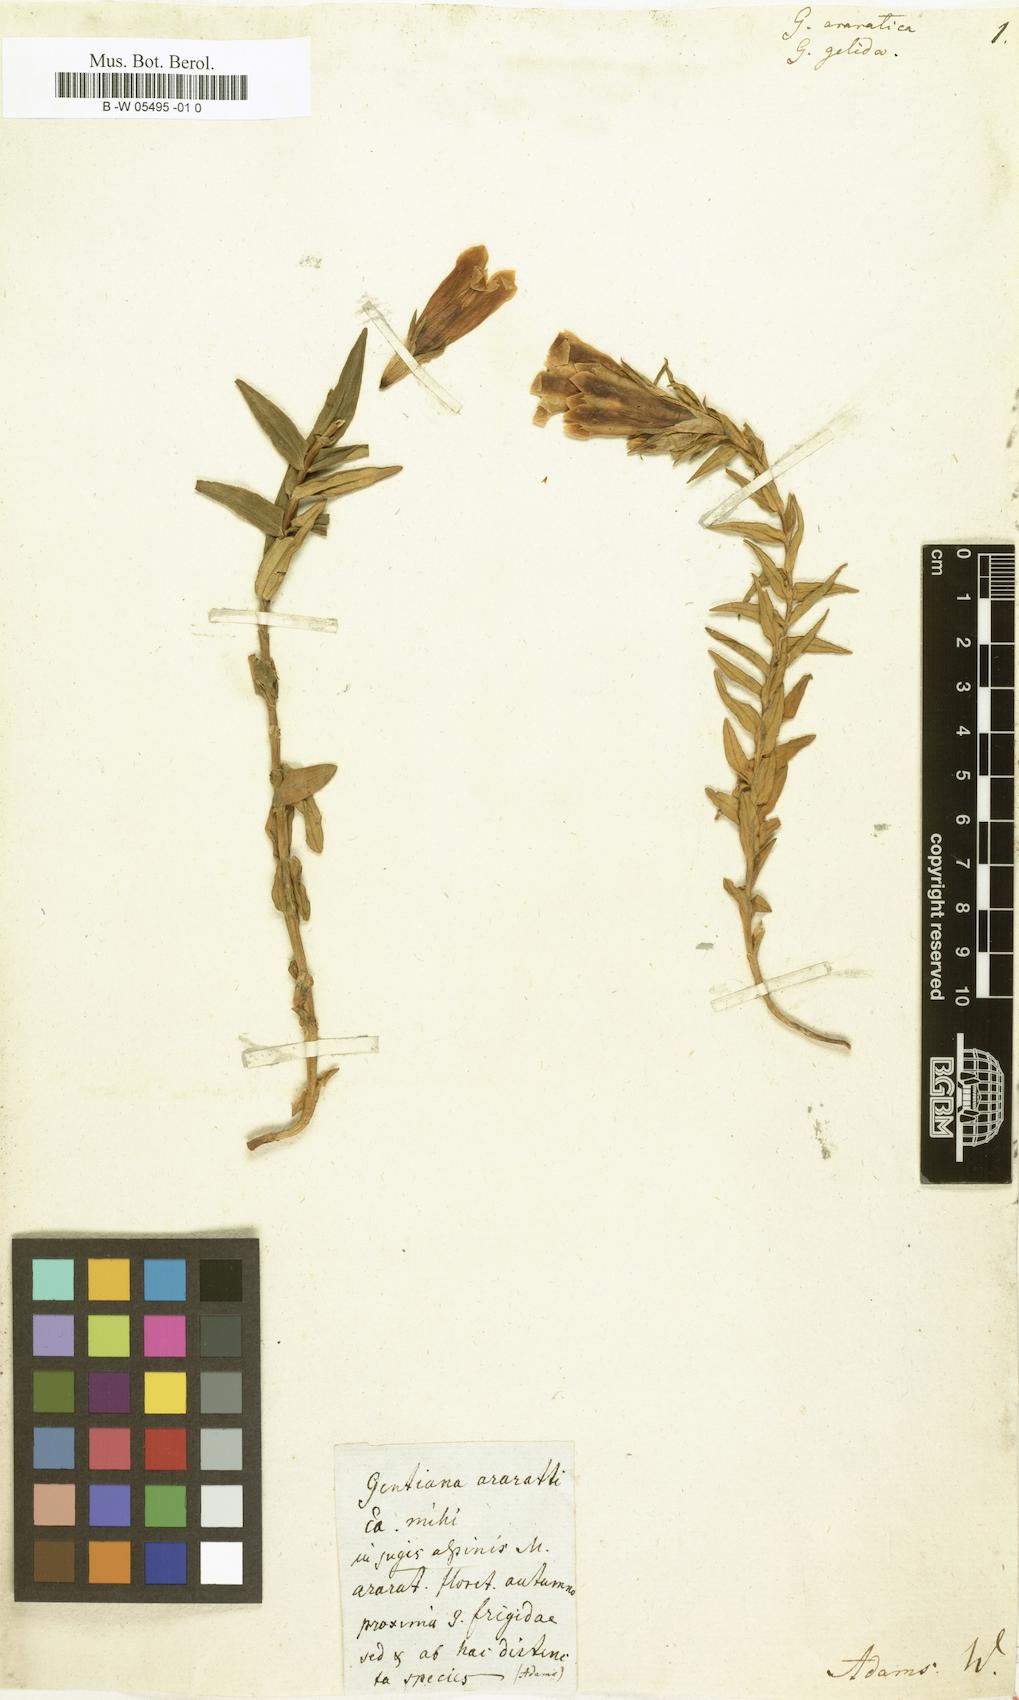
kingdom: Plantae
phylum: Tracheophyta
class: Magnoliopsida
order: Gentianales
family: Gentianaceae
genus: Gentiana
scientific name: Gentiana gelida
